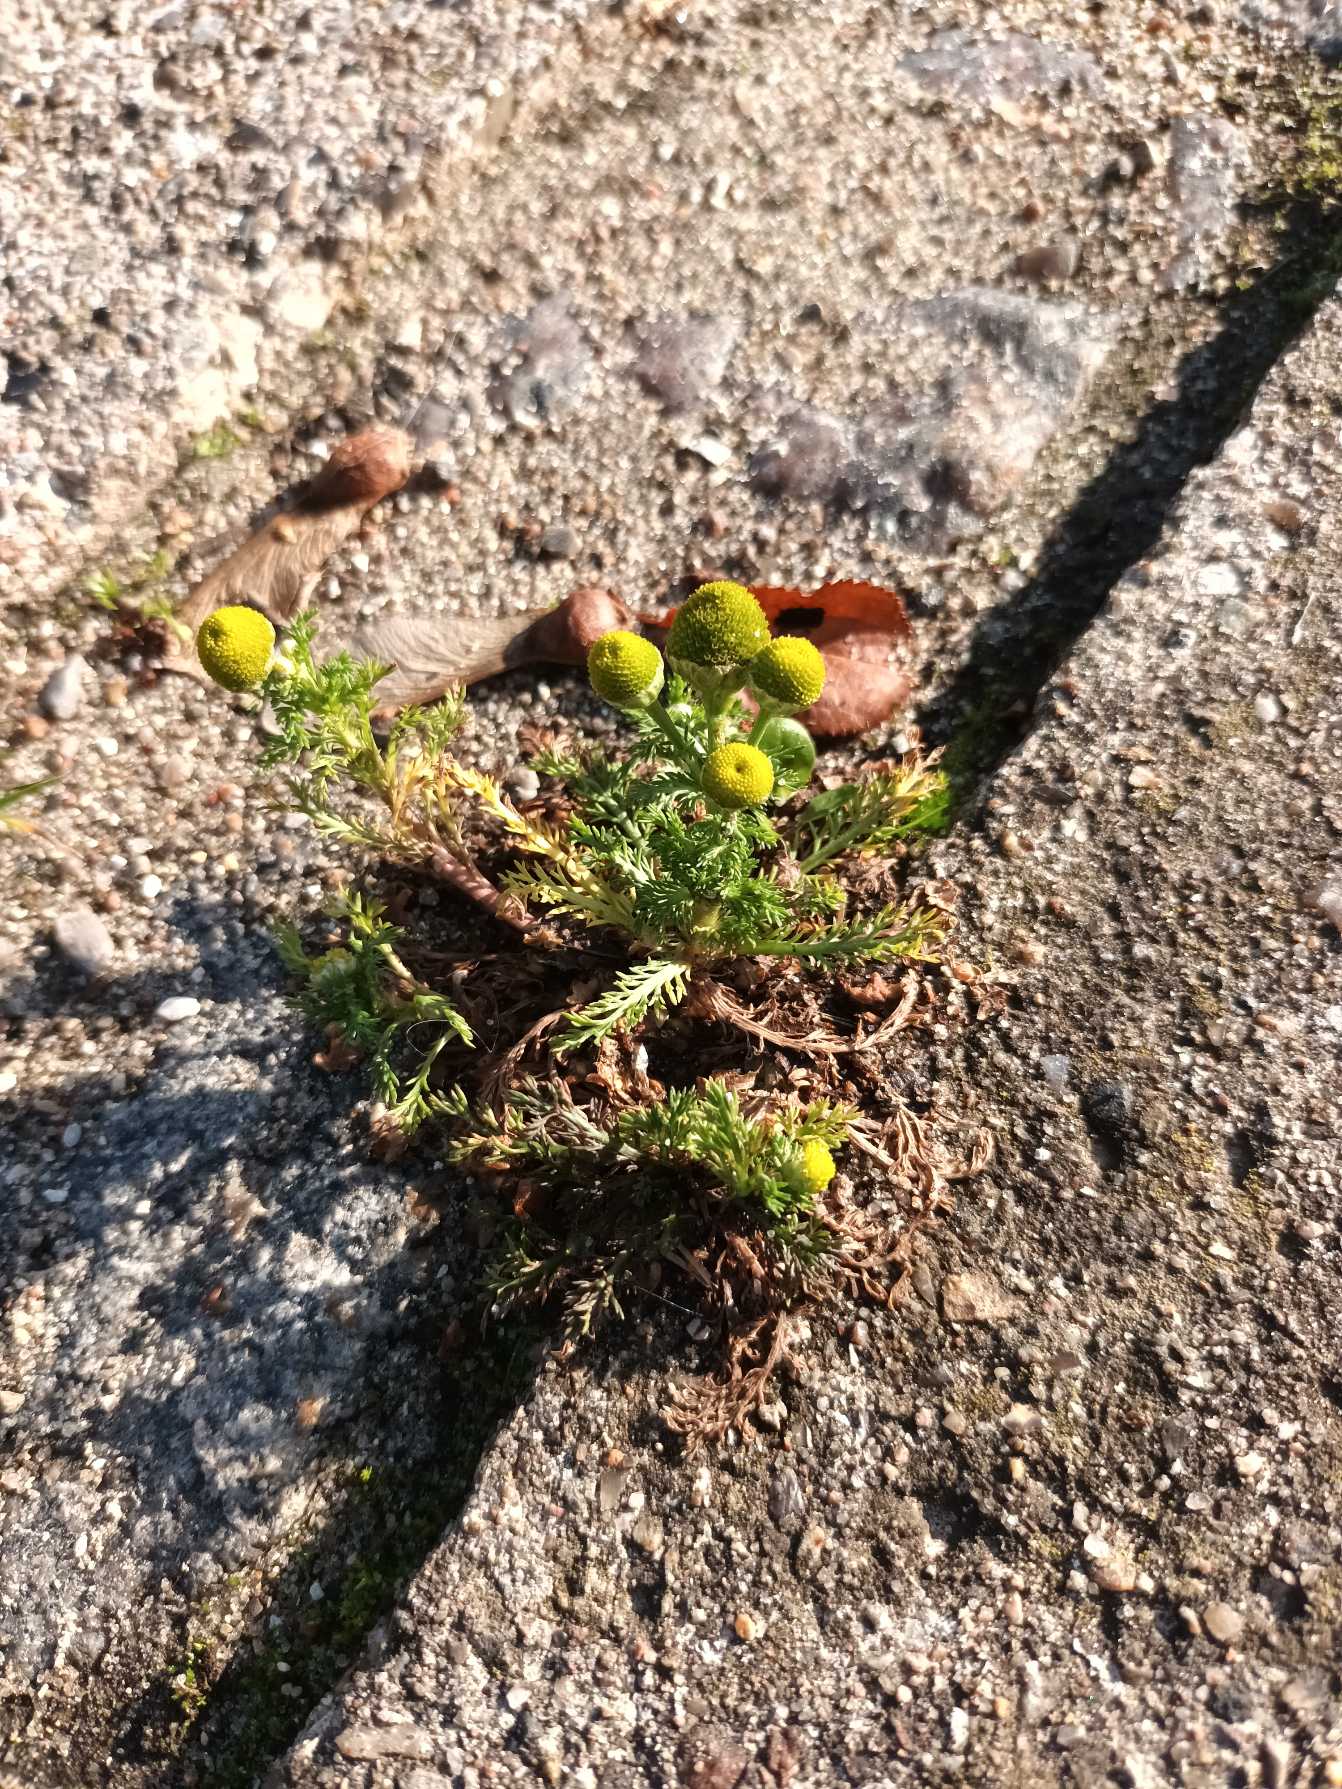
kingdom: Plantae
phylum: Tracheophyta
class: Magnoliopsida
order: Asterales
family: Asteraceae
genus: Matricaria
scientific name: Matricaria discoidea
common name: Skive-kamille
